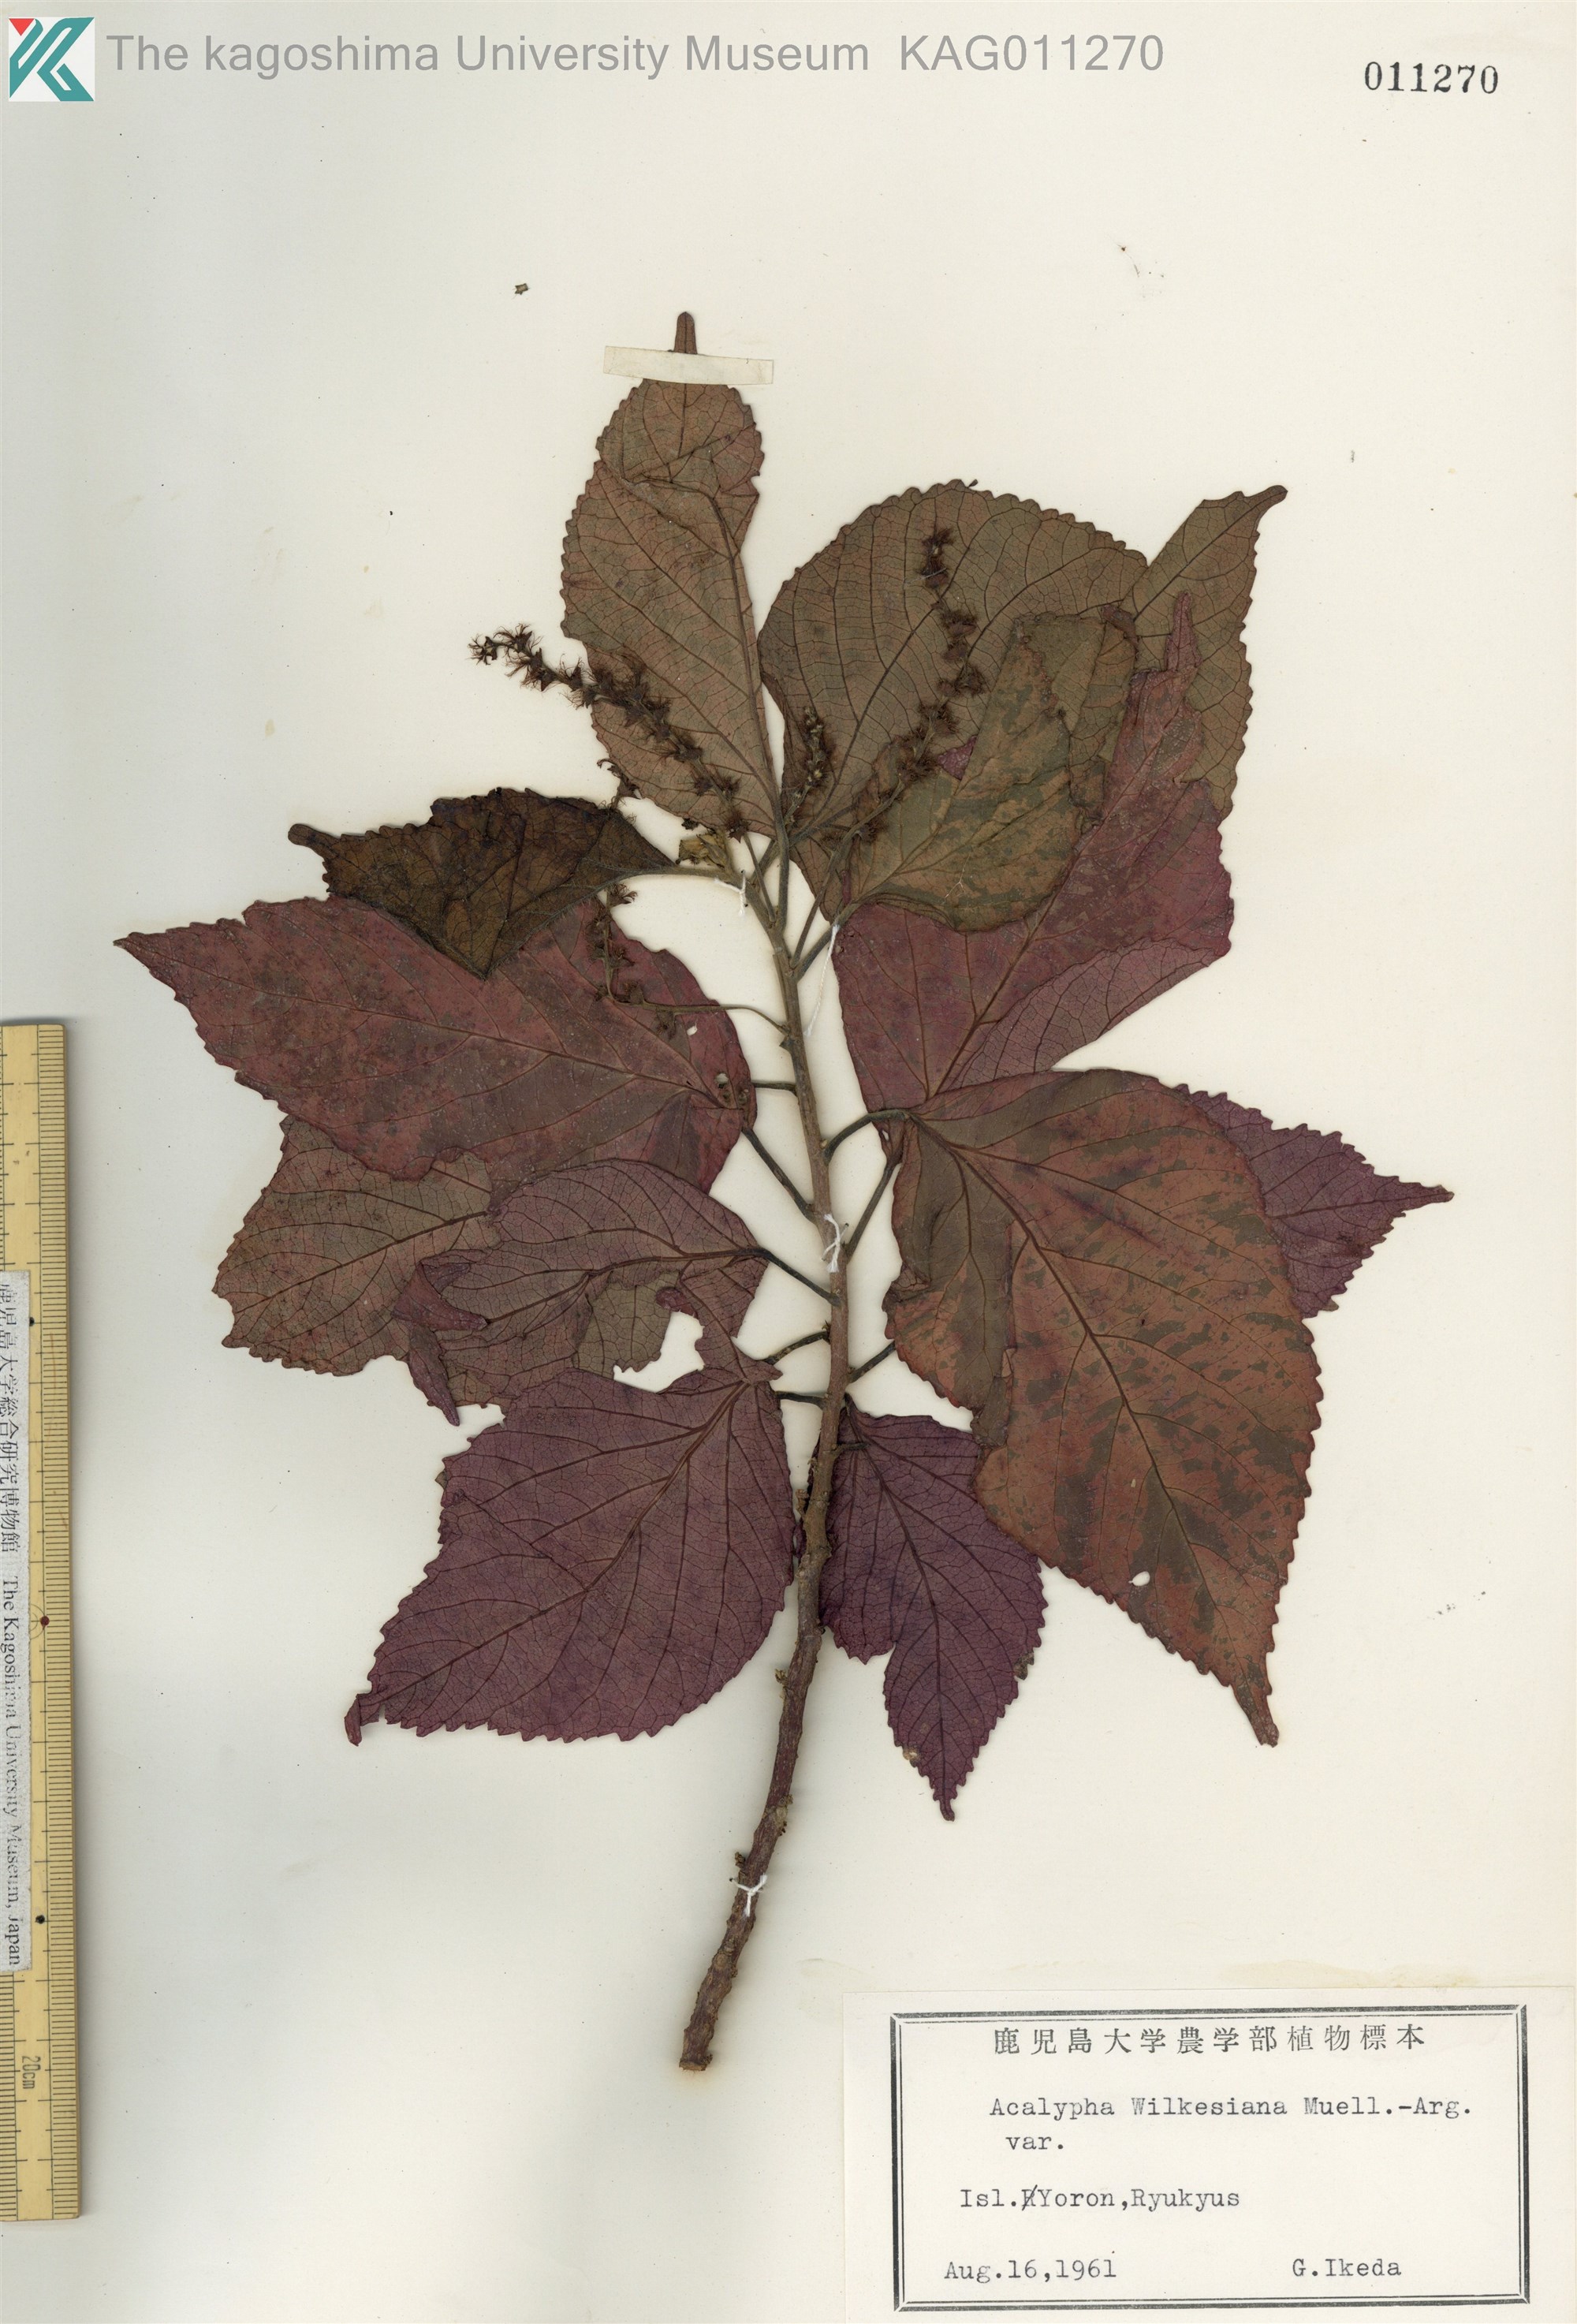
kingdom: Plantae
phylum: Tracheophyta
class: Magnoliopsida
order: Malpighiales
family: Euphorbiaceae
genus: Acalypha
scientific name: Acalypha wilkesiana
